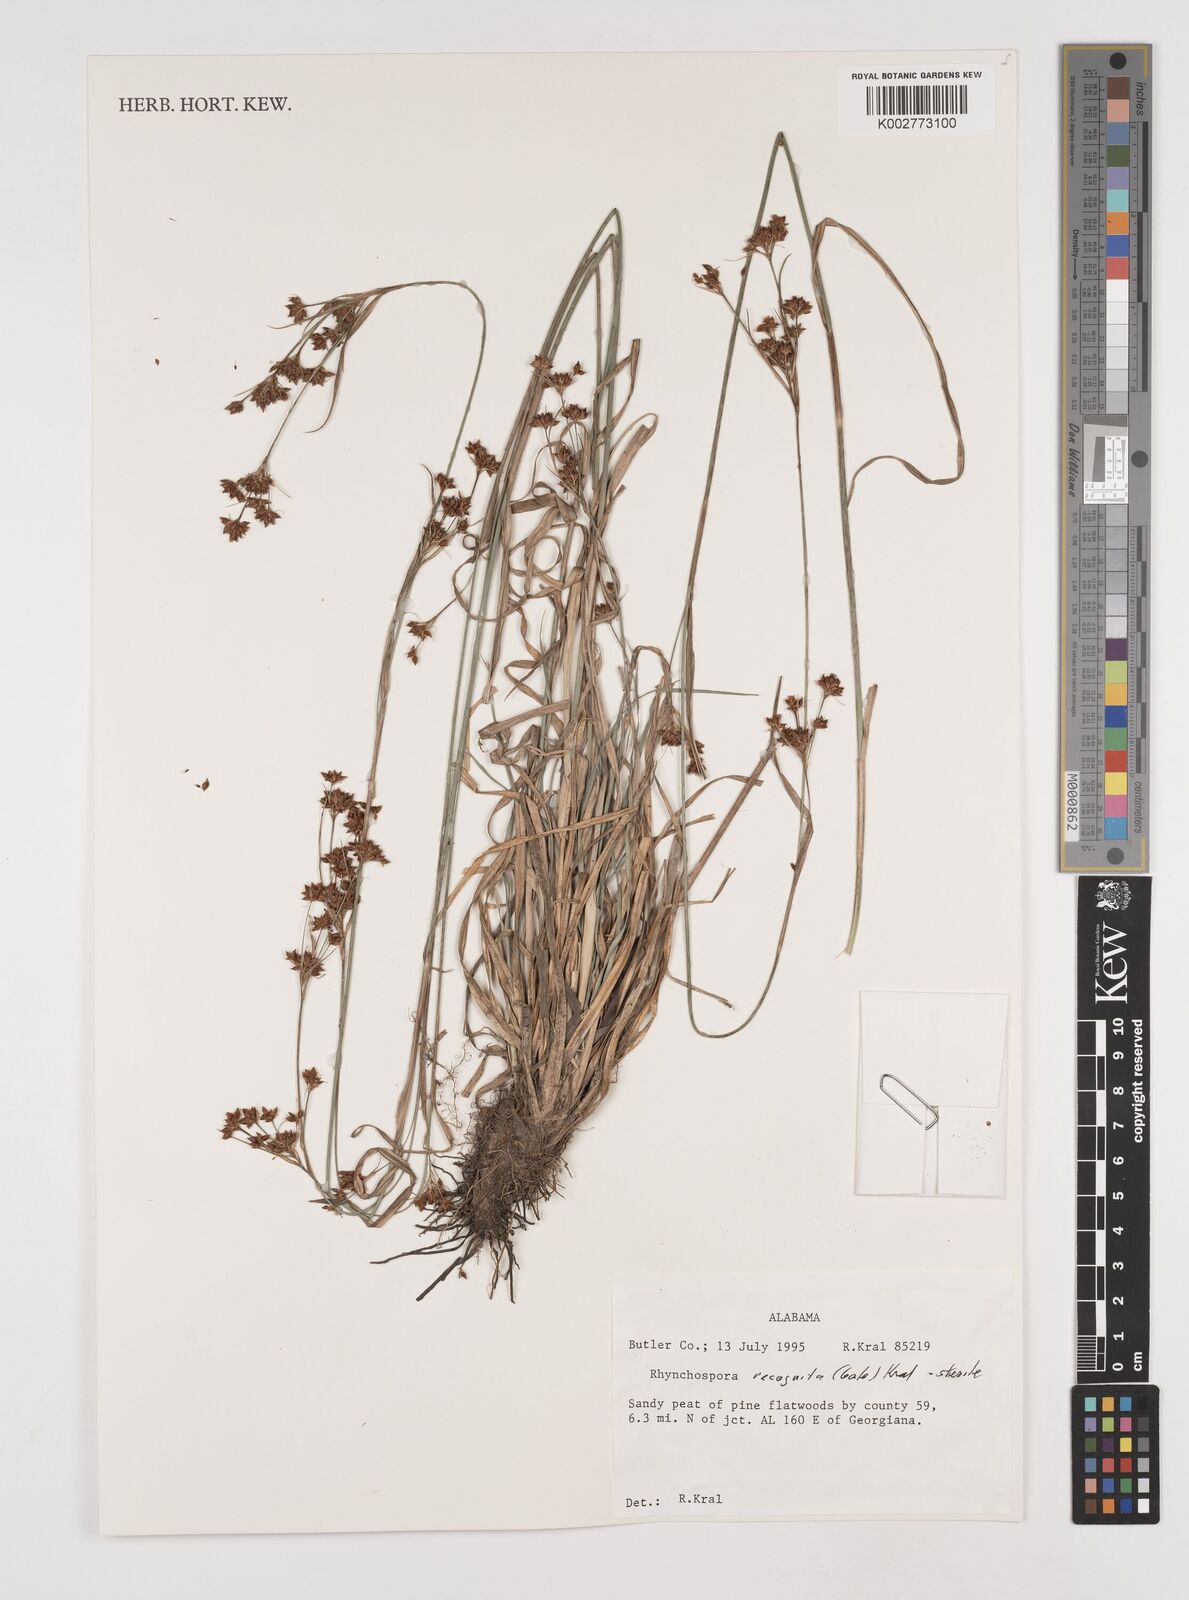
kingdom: Plantae
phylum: Tracheophyta
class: Liliopsida
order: Poales
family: Cyperaceae
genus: Rhynchospora
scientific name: Rhynchospora recognita
